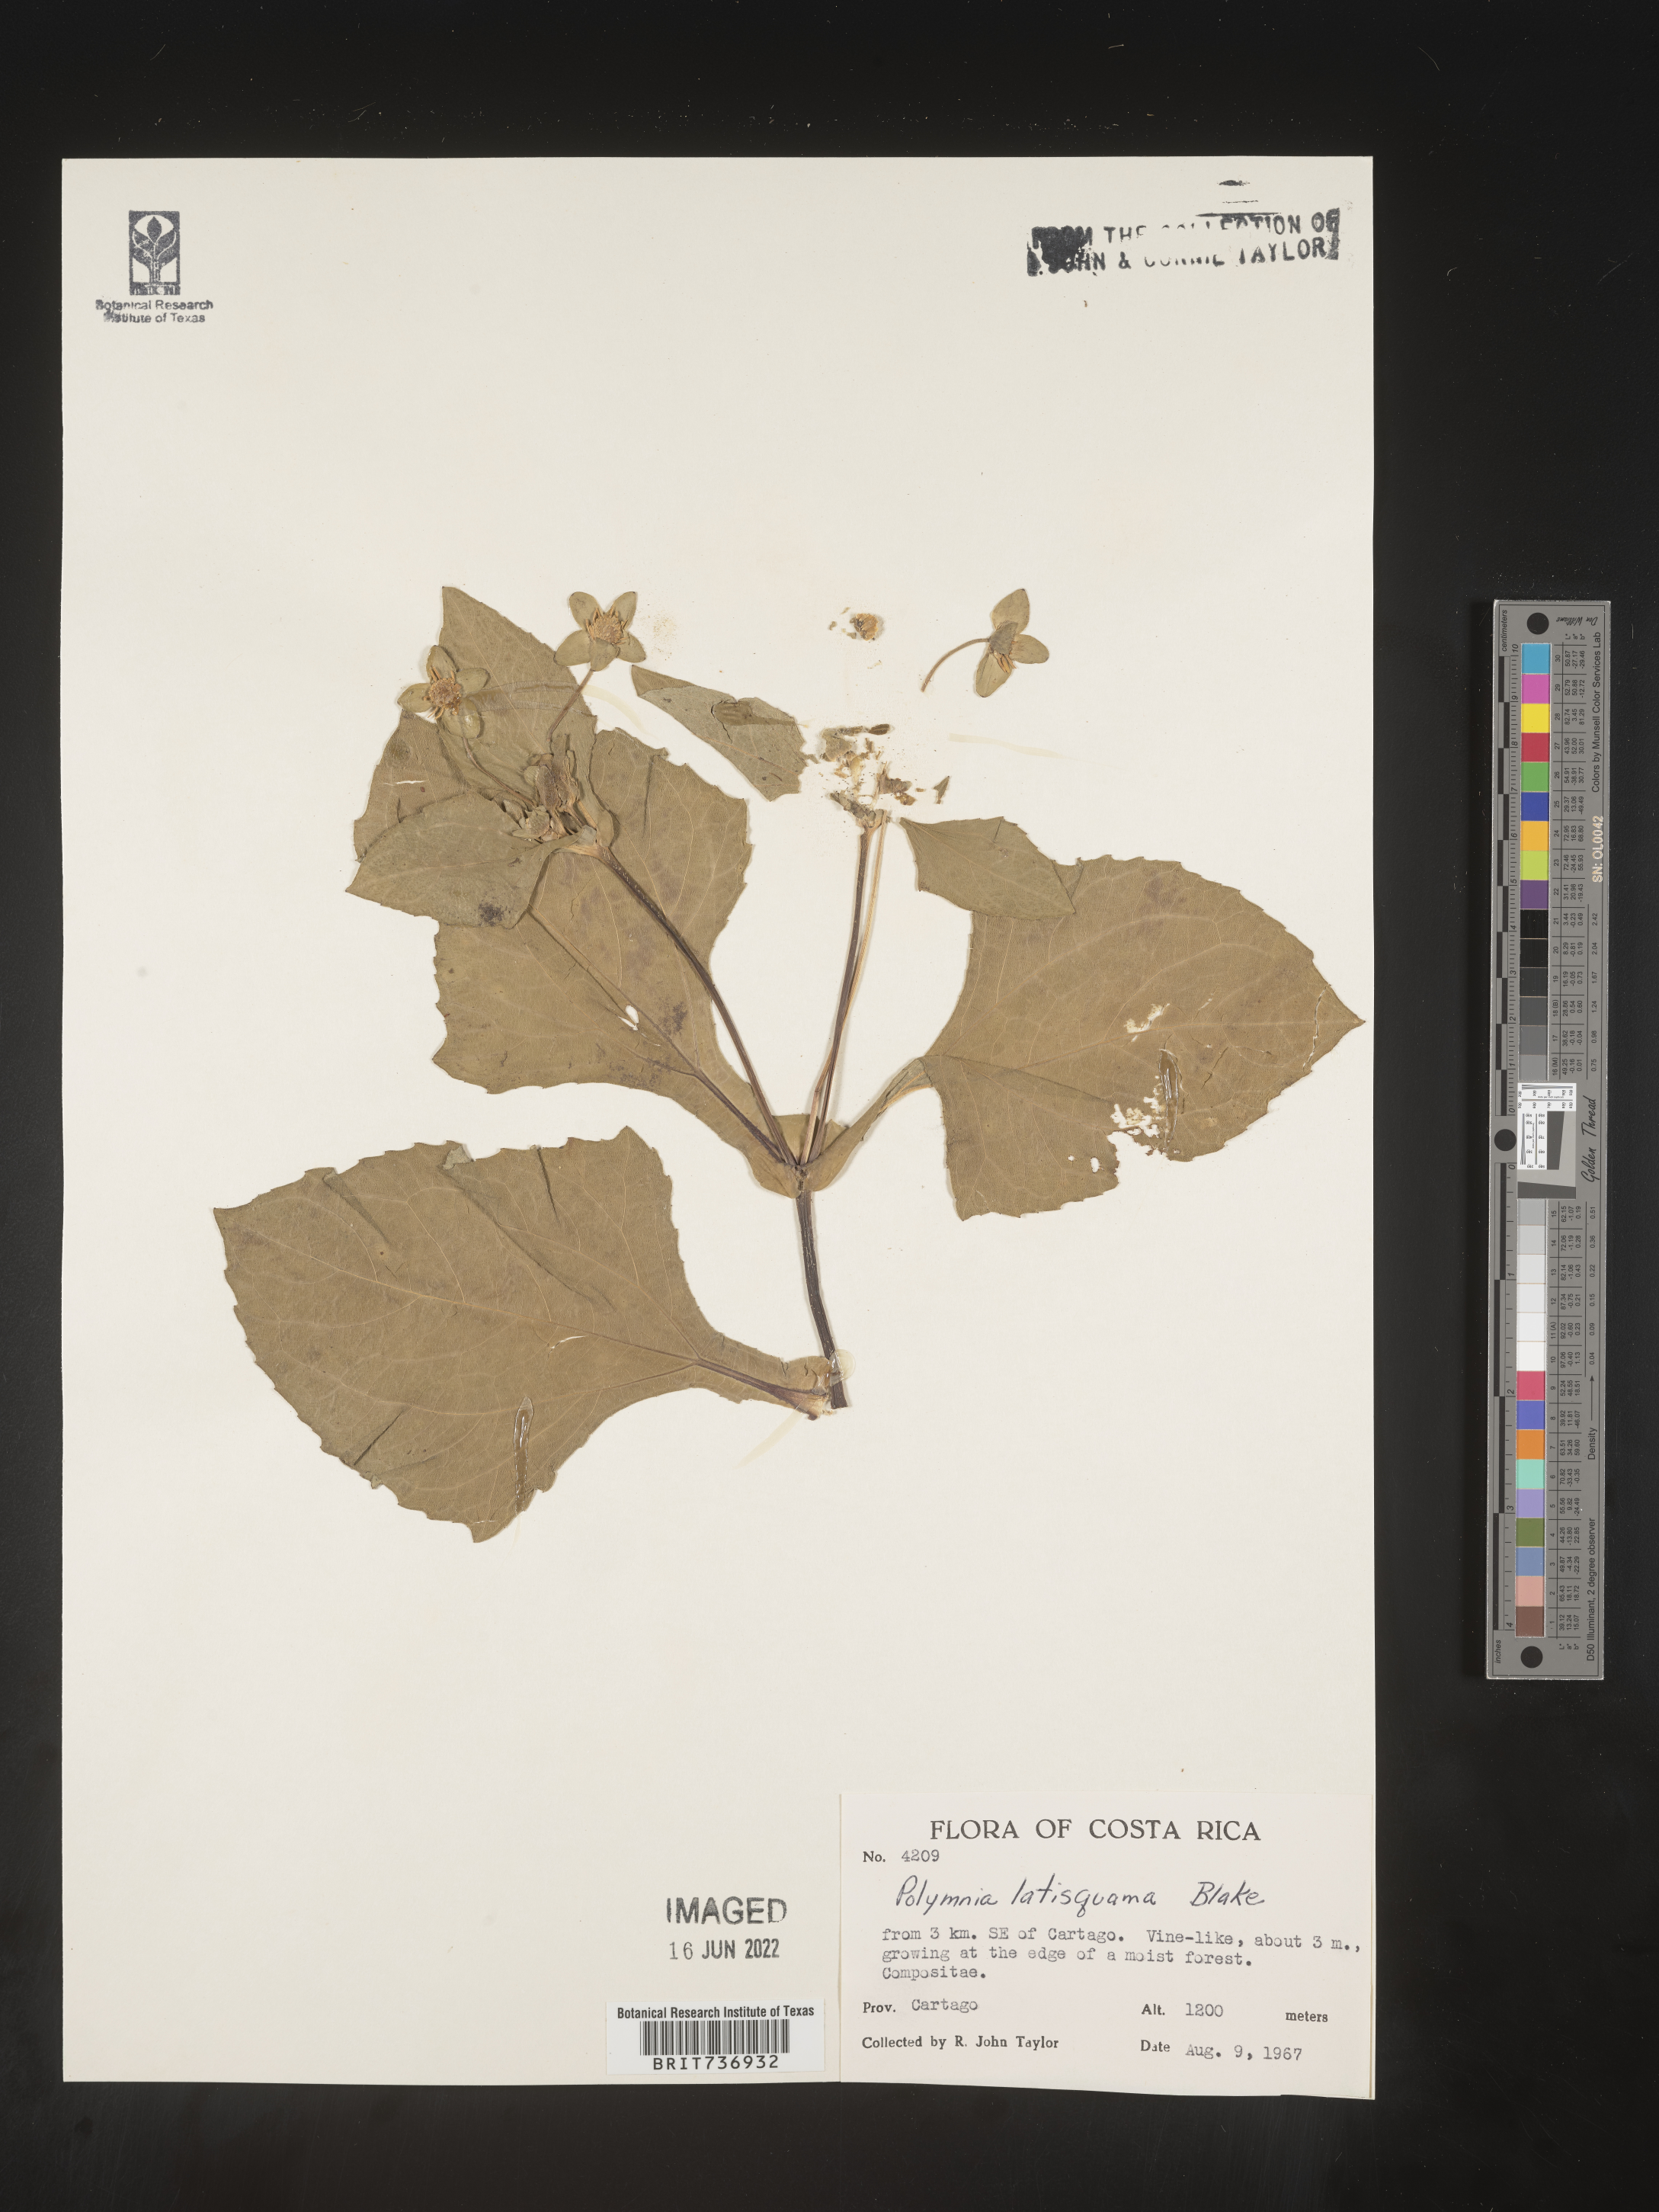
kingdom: Plantae
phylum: Tracheophyta
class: Magnoliopsida
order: Asterales
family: Asteraceae
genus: Polymnia
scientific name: Polymnia
